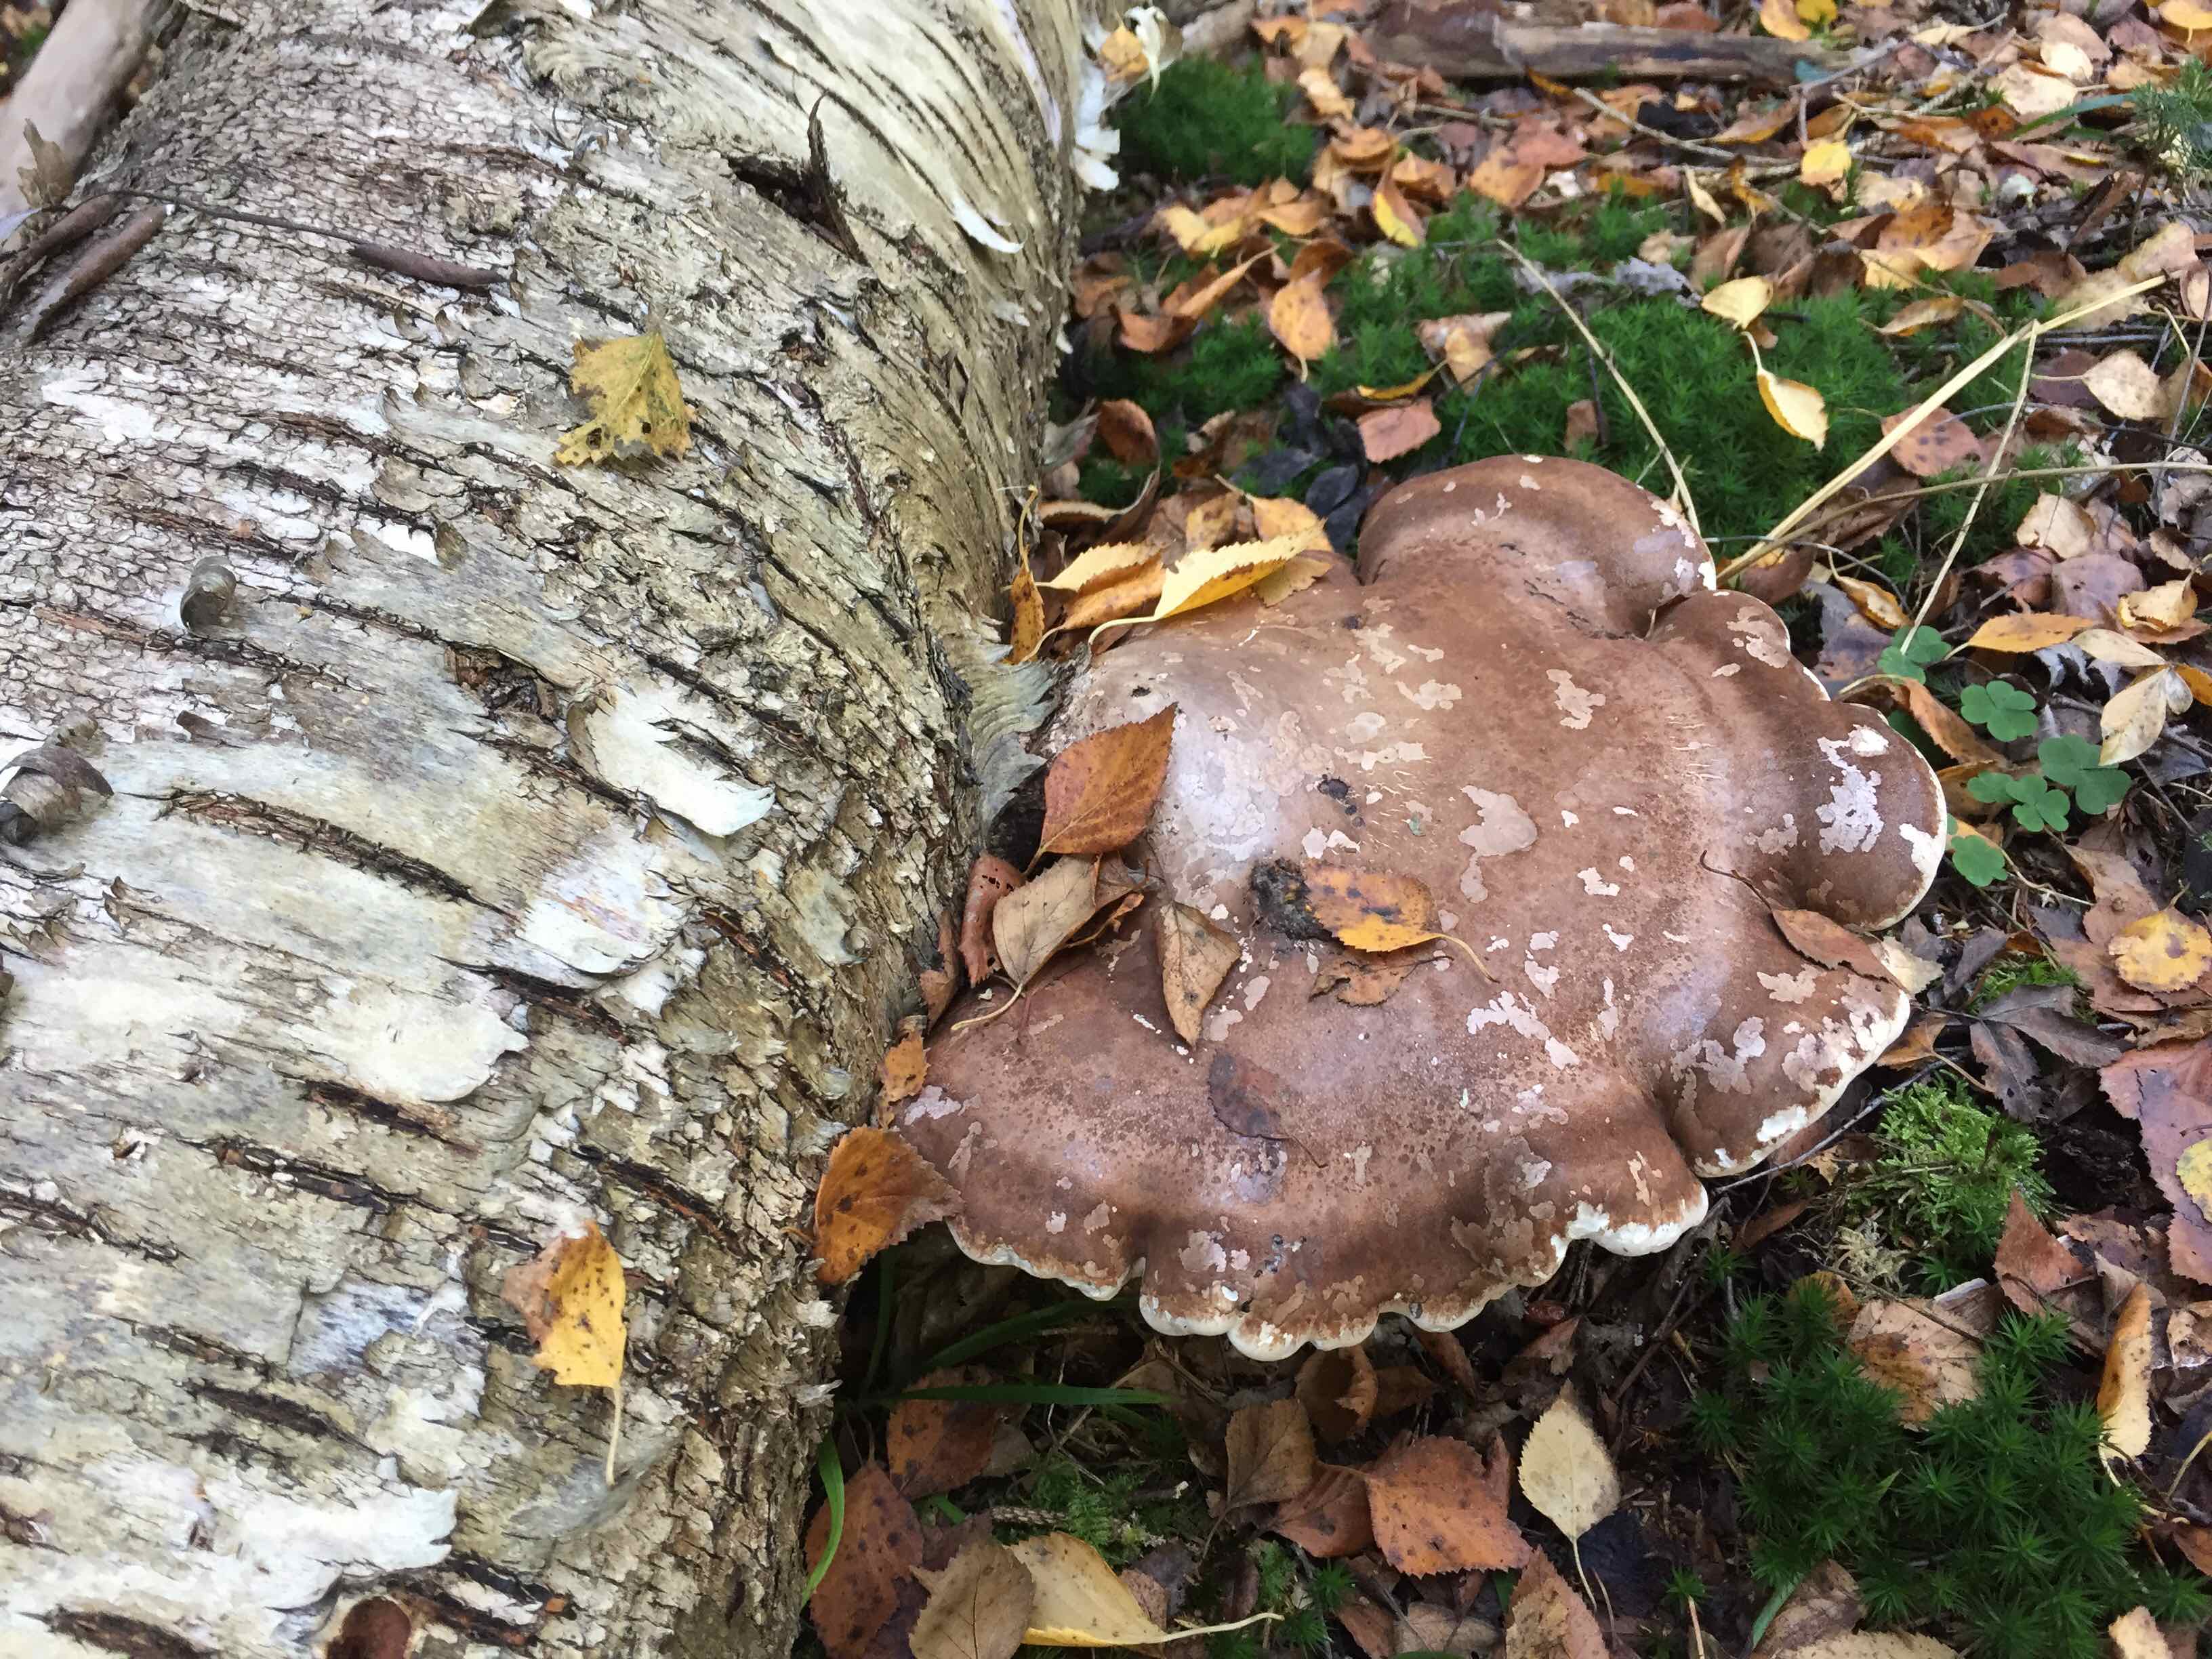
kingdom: Fungi
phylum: Basidiomycota
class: Agaricomycetes
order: Polyporales
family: Fomitopsidaceae
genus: Fomitopsis
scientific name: Fomitopsis betulina
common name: birkeporesvamp
